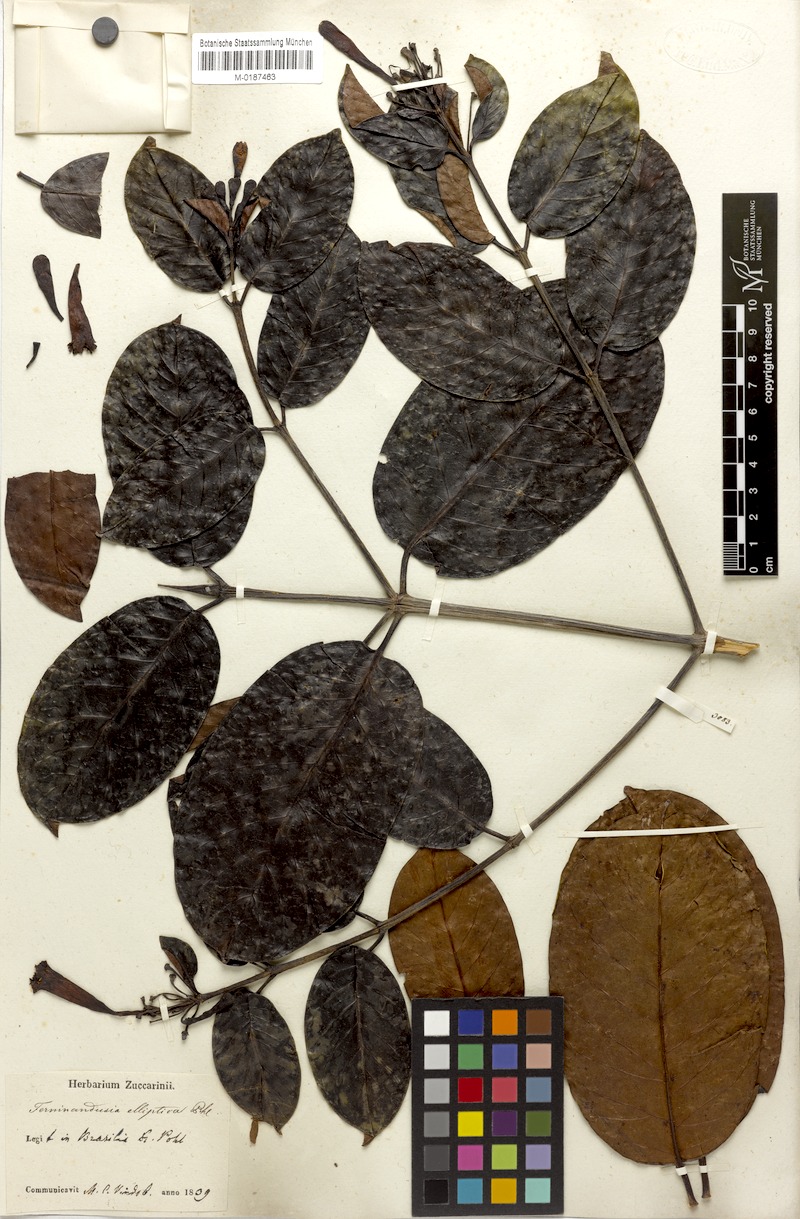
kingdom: Plantae
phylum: Tracheophyta
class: Magnoliopsida
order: Gentianales
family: Rubiaceae
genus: Ferdinandusa
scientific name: Ferdinandusa elliptica
